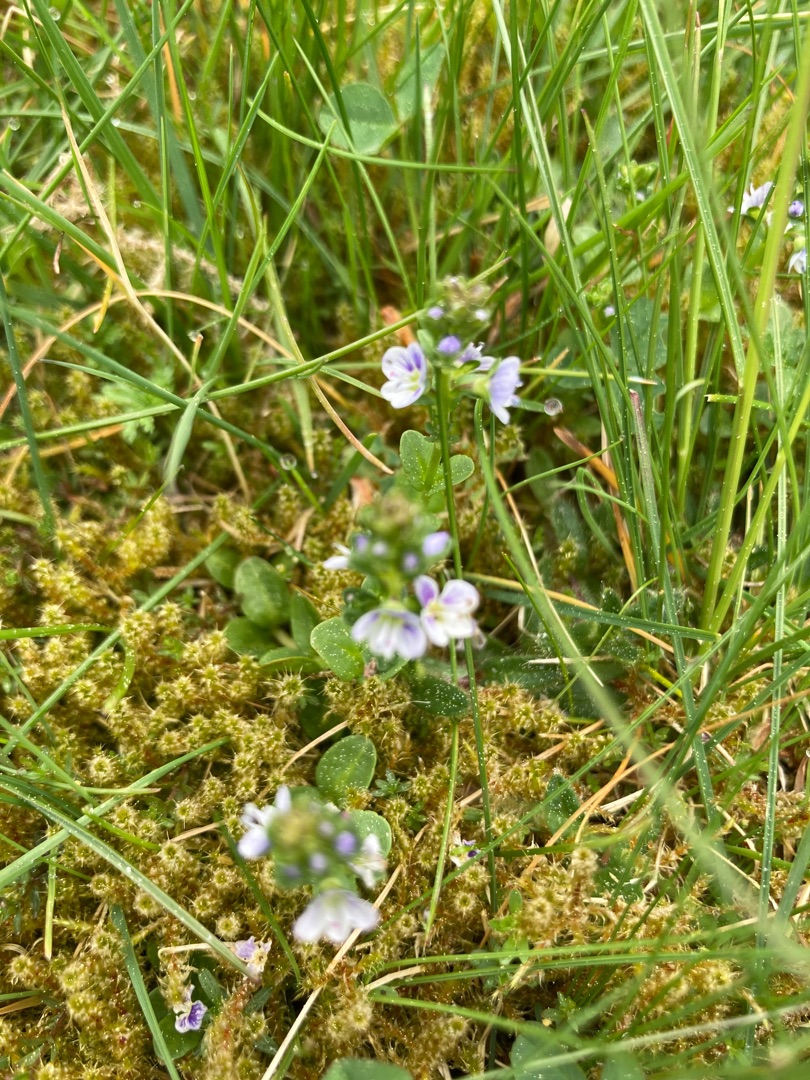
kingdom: Plantae
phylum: Tracheophyta
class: Magnoliopsida
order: Lamiales
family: Plantaginaceae
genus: Veronica
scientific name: Veronica serpyllifolia
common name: Glat ærenpris
